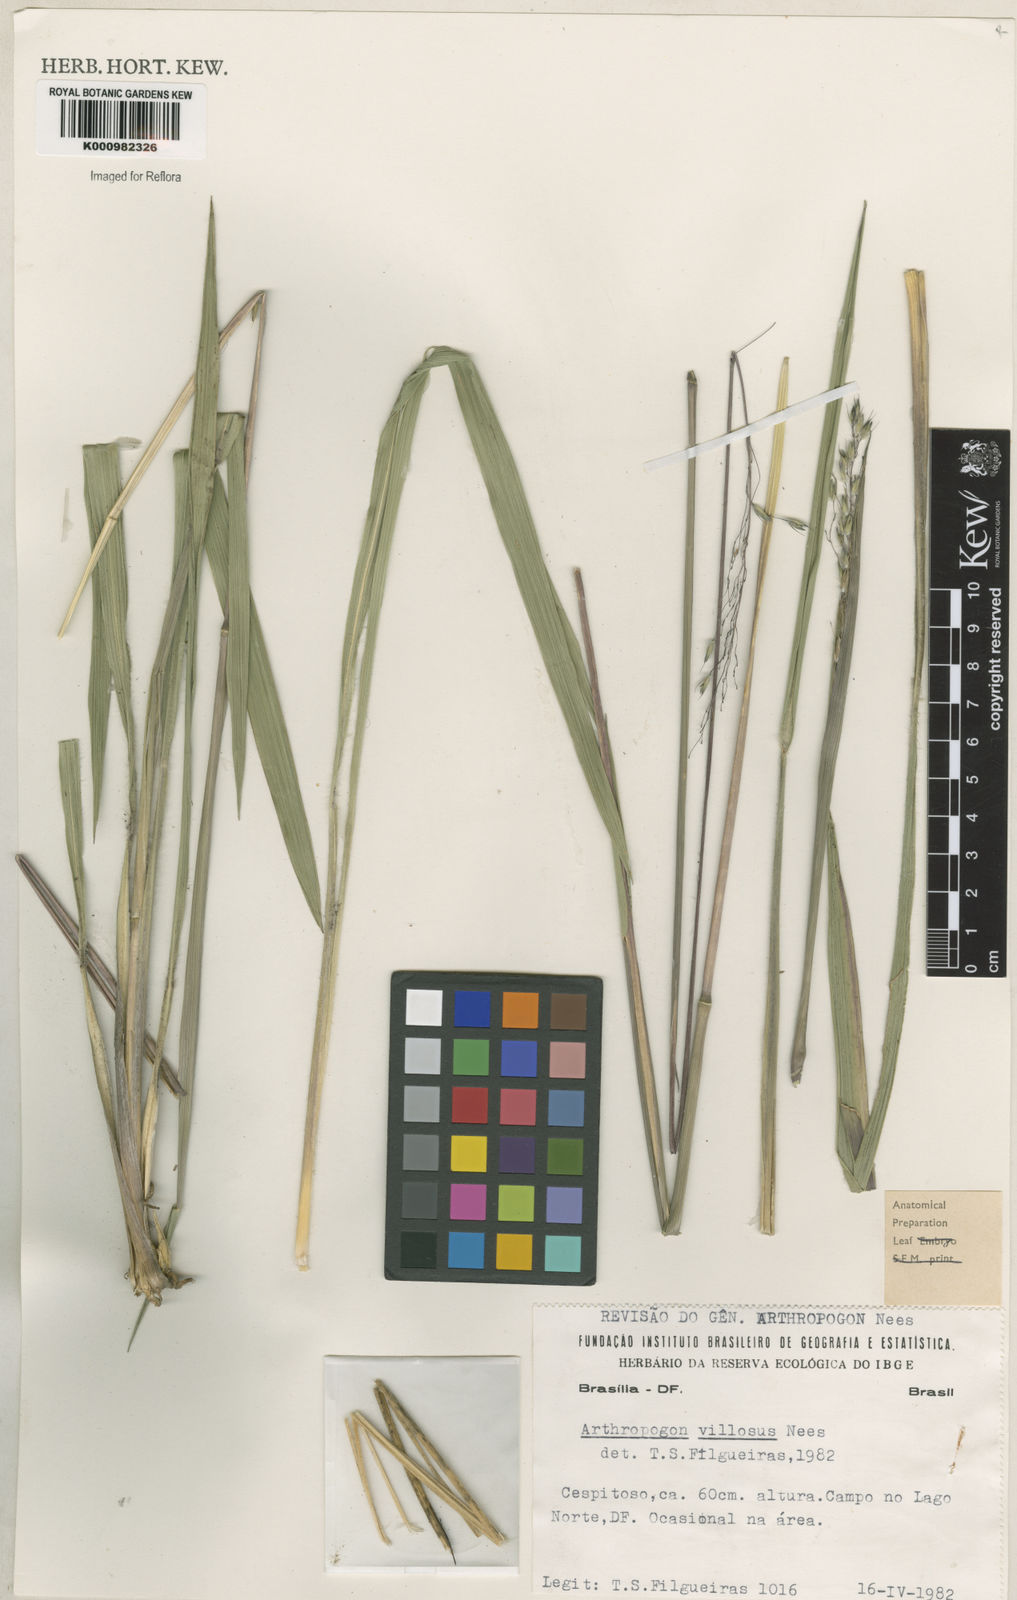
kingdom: Plantae
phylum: Tracheophyta
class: Liliopsida
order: Poales
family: Poaceae
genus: Arthropogon
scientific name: Arthropogon villosus
